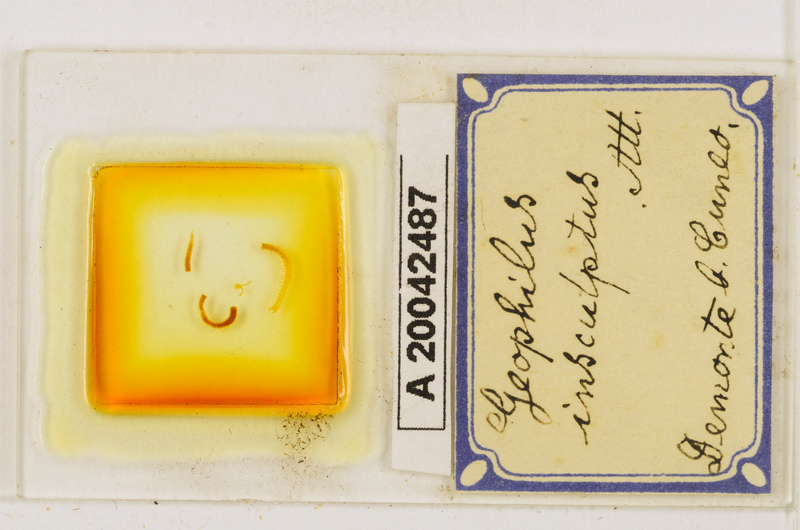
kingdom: Animalia
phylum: Arthropoda
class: Chilopoda
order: Geophilomorpha
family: Geophilidae
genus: Geophilus
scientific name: Geophilus insculptus
